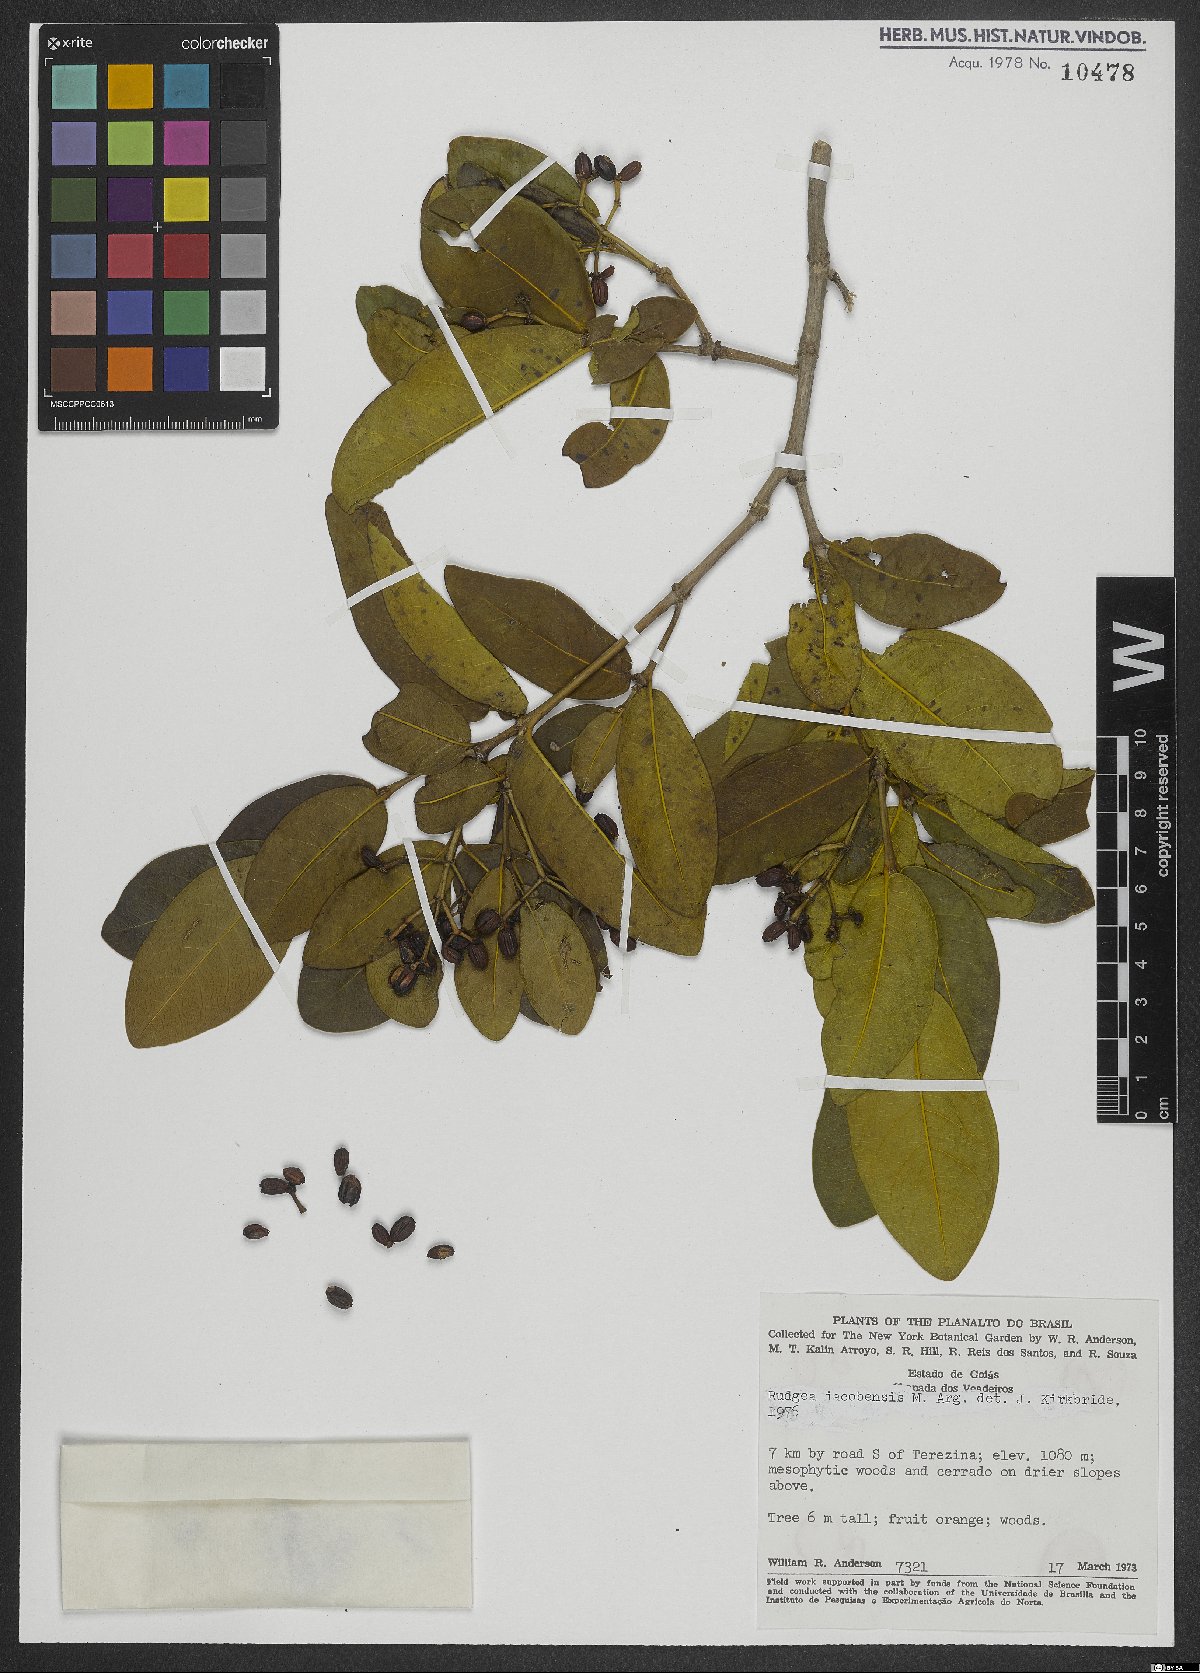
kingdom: Plantae
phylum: Tracheophyta
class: Magnoliopsida
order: Gentianales
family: Rubiaceae
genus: Rudgea
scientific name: Rudgea erioloba
